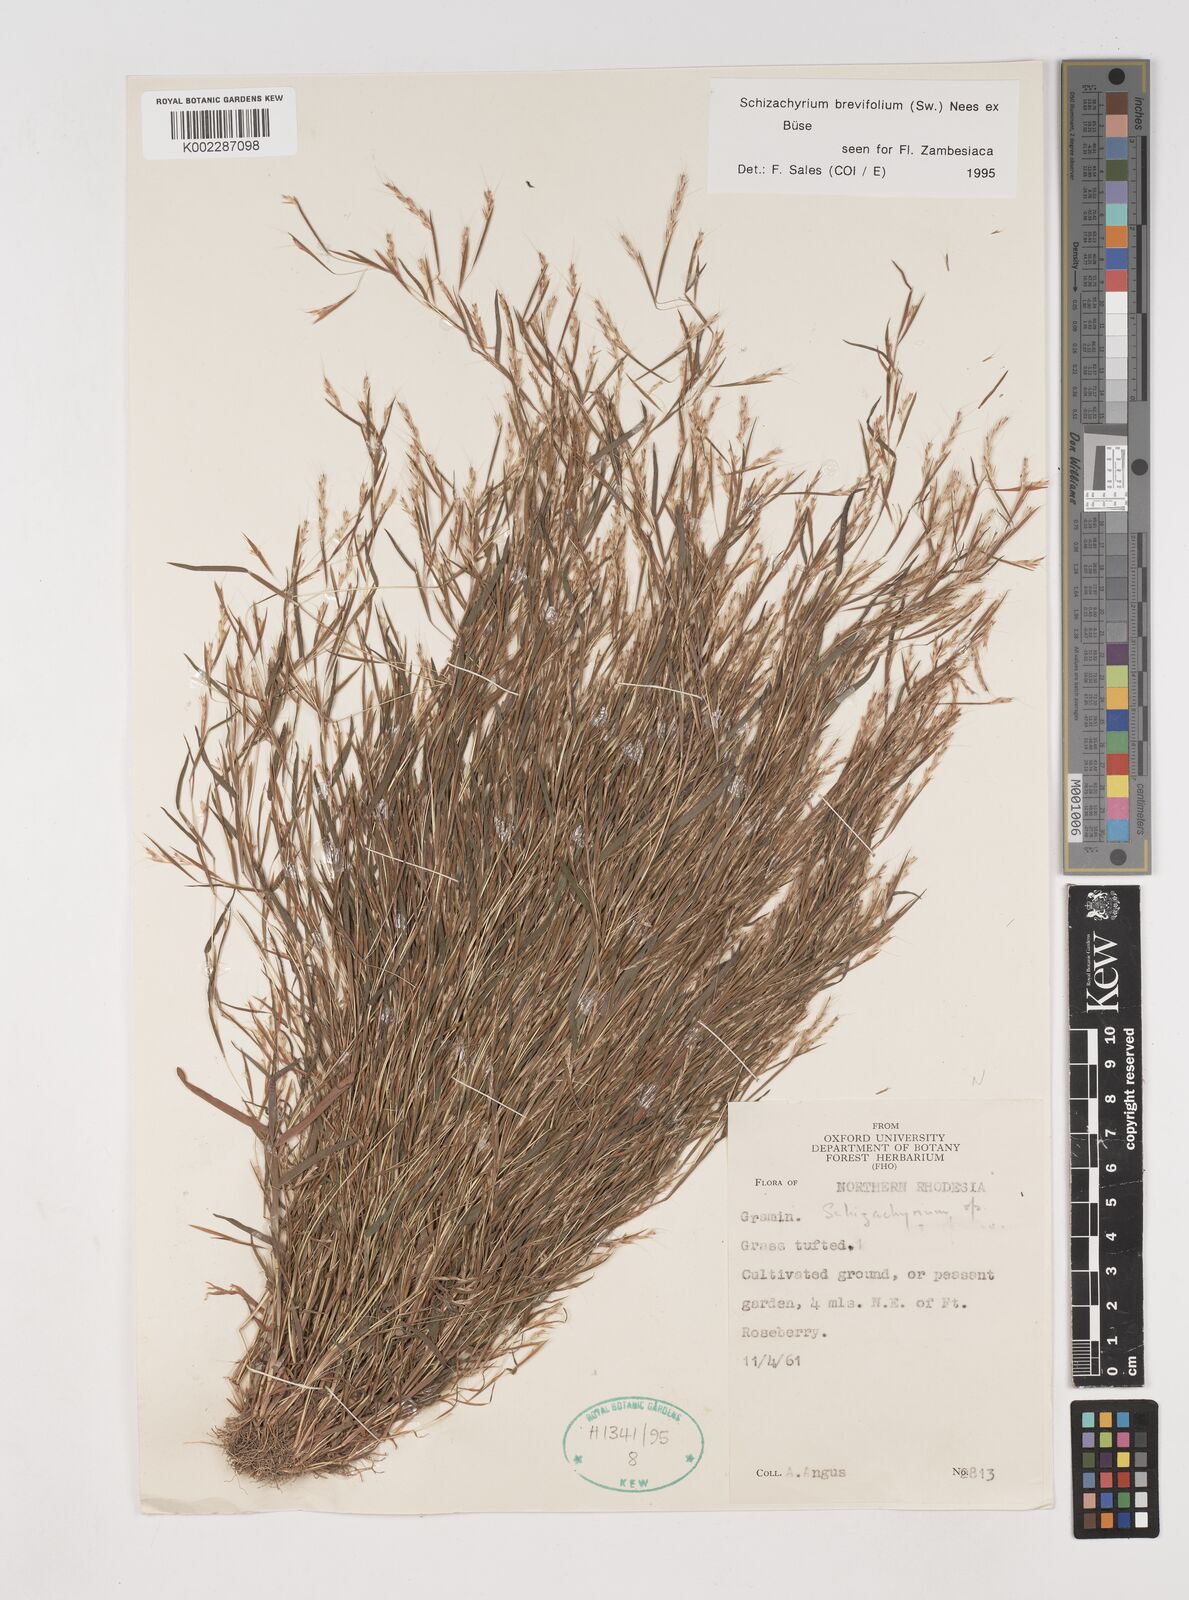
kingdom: Plantae
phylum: Tracheophyta
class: Liliopsida
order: Poales
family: Poaceae
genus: Schizachyrium
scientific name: Schizachyrium brevifolium
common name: Serillo dulce
